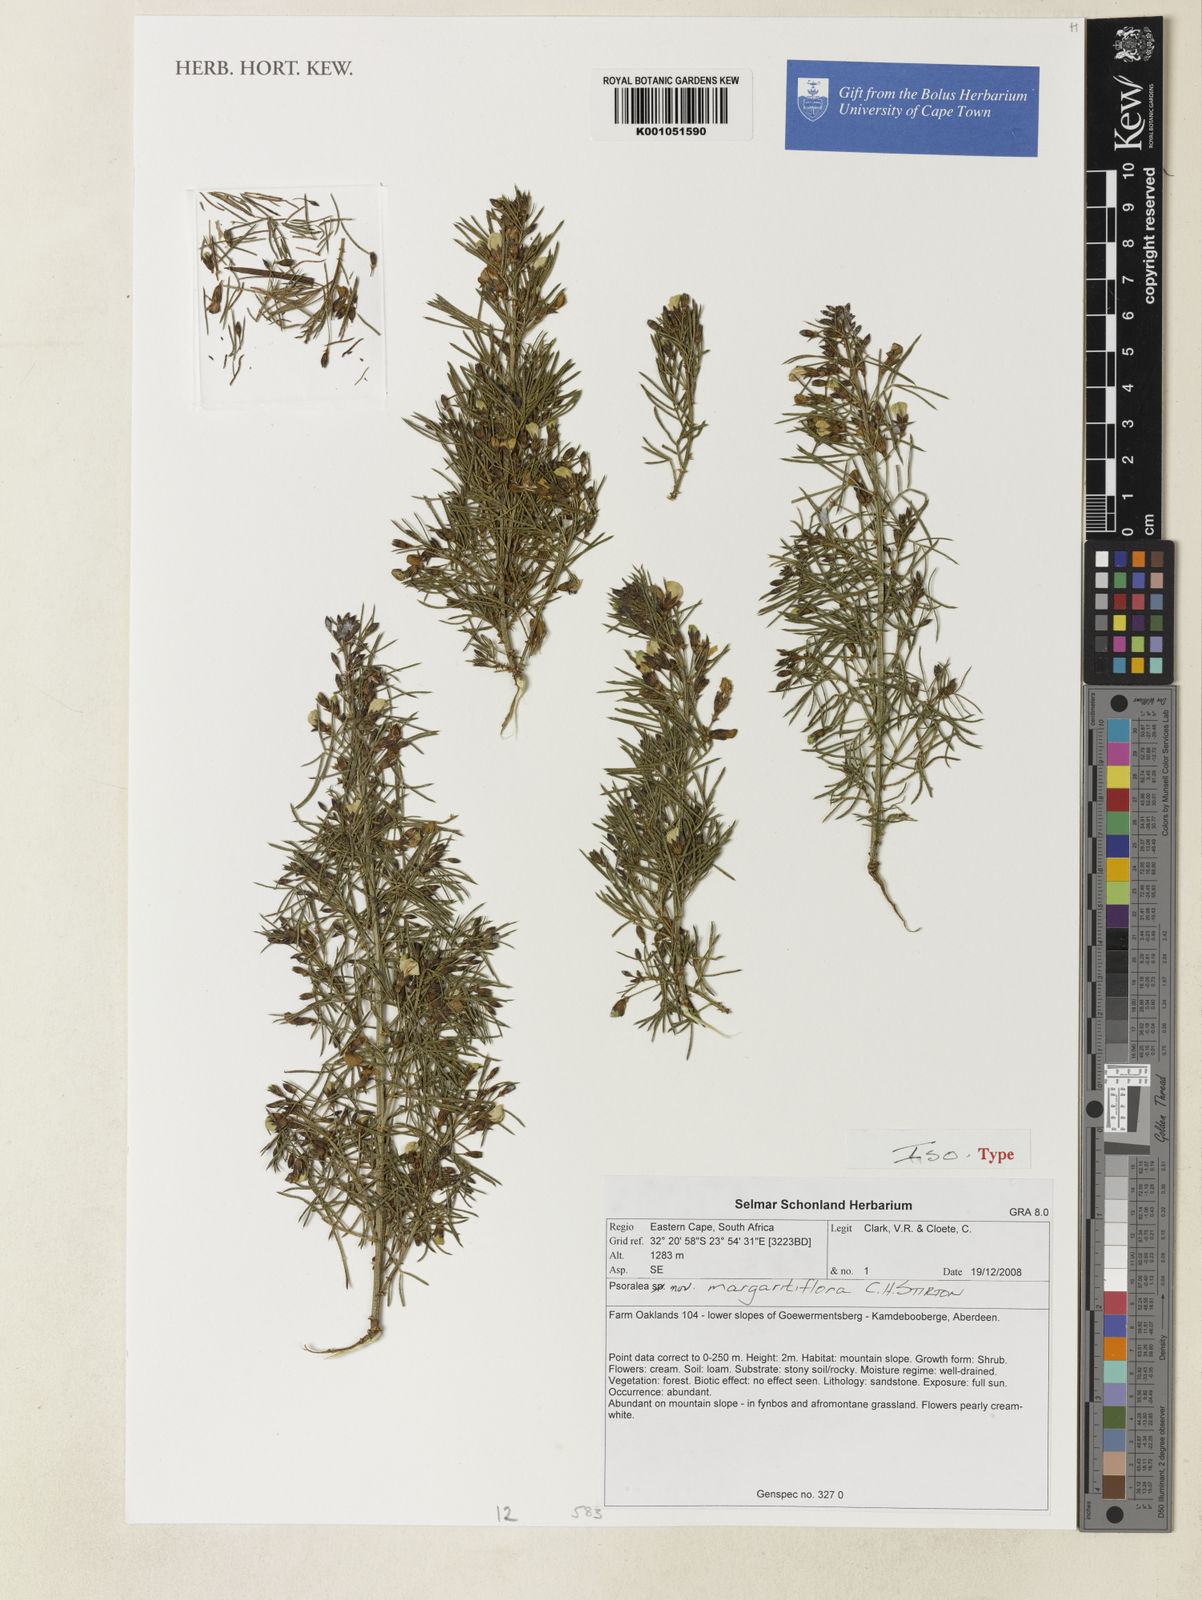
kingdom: Plantae
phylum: Tracheophyta
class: Magnoliopsida
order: Fabales
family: Fabaceae
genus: Psoralea
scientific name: Psoralea
